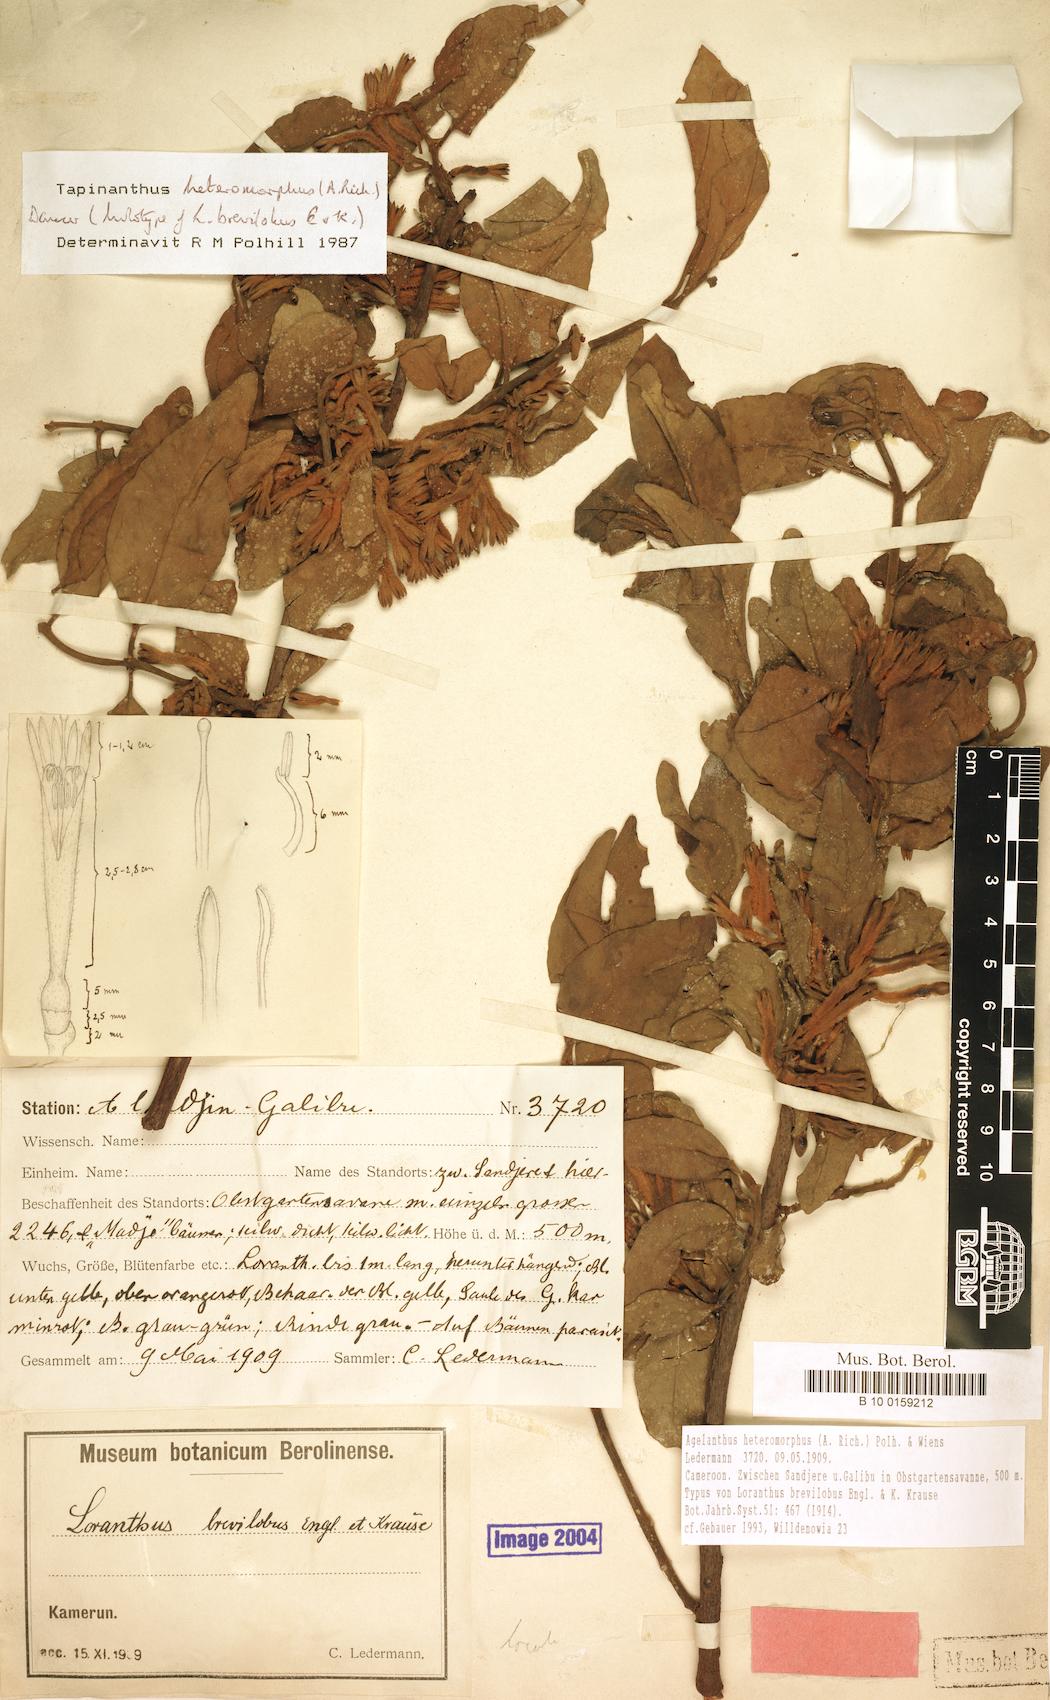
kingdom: Plantae
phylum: Tracheophyta
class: Magnoliopsida
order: Santalales
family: Loranthaceae
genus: Agelanthus
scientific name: Agelanthus heteromorphus
